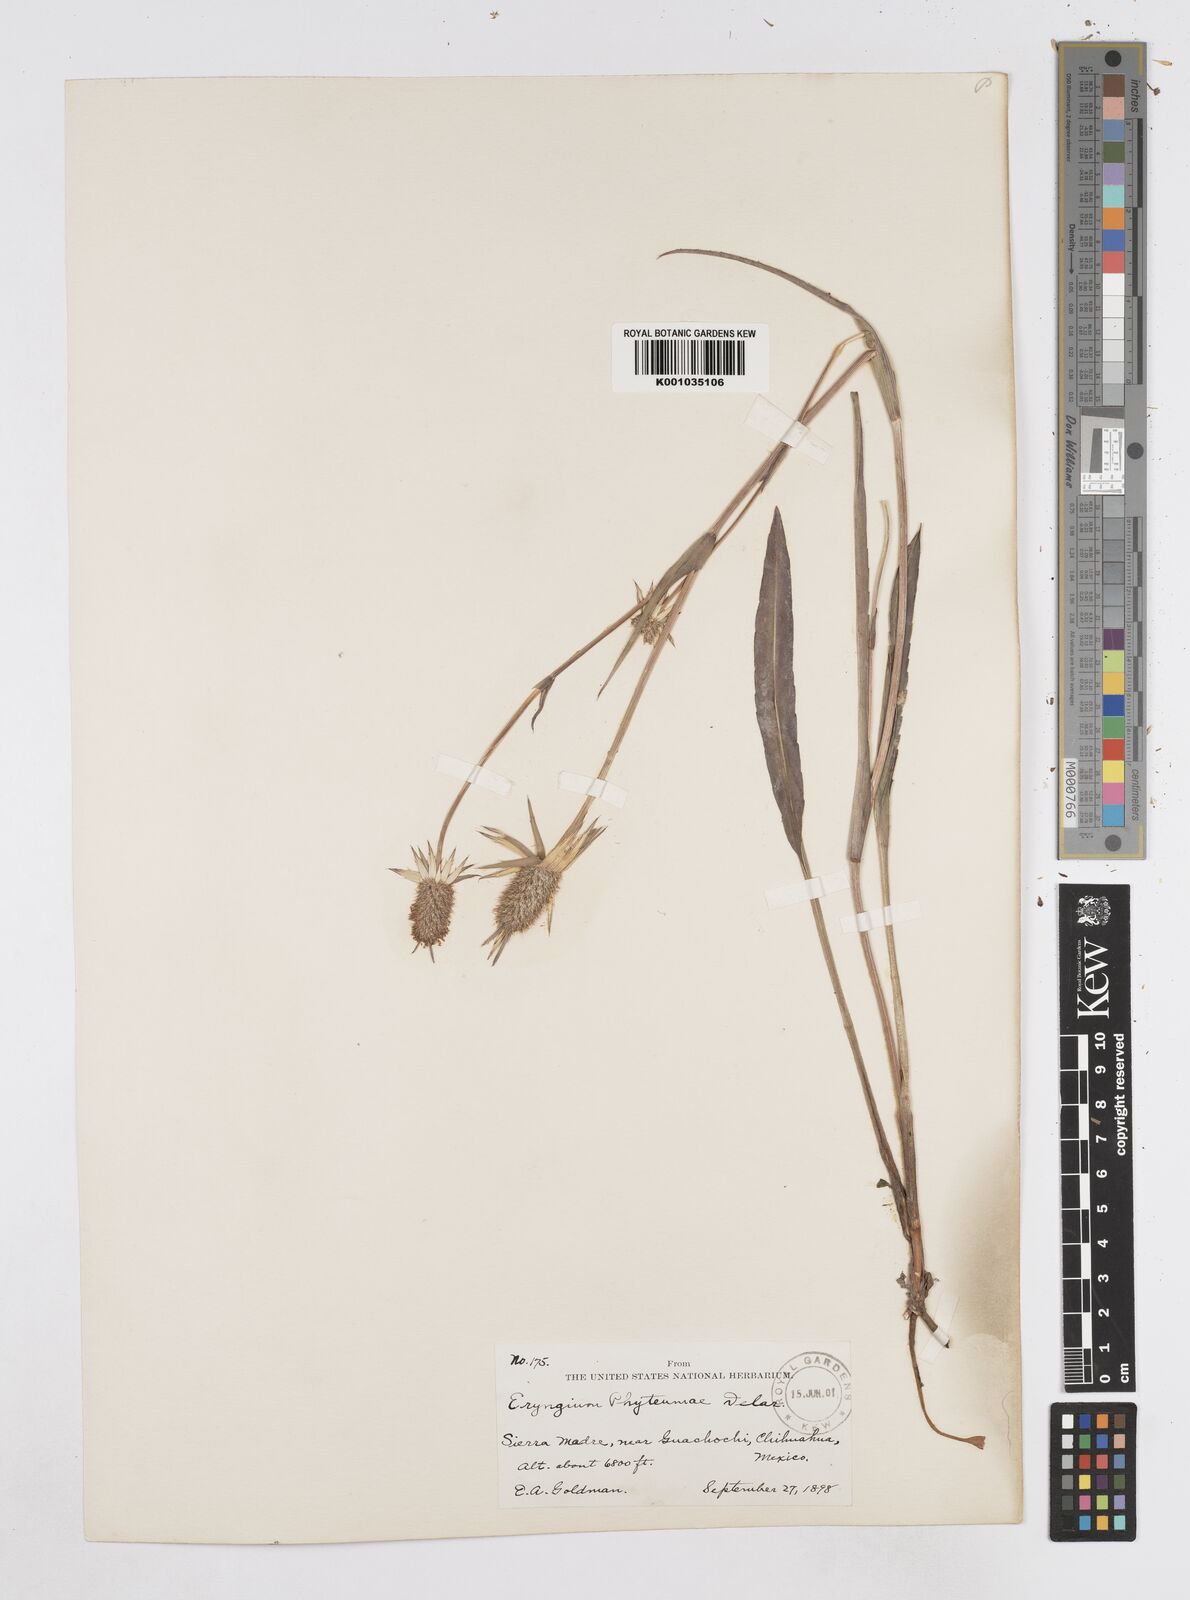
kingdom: Plantae
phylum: Tracheophyta
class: Magnoliopsida
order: Apiales
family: Apiaceae
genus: Eryngium
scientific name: Eryngium phyteumae
